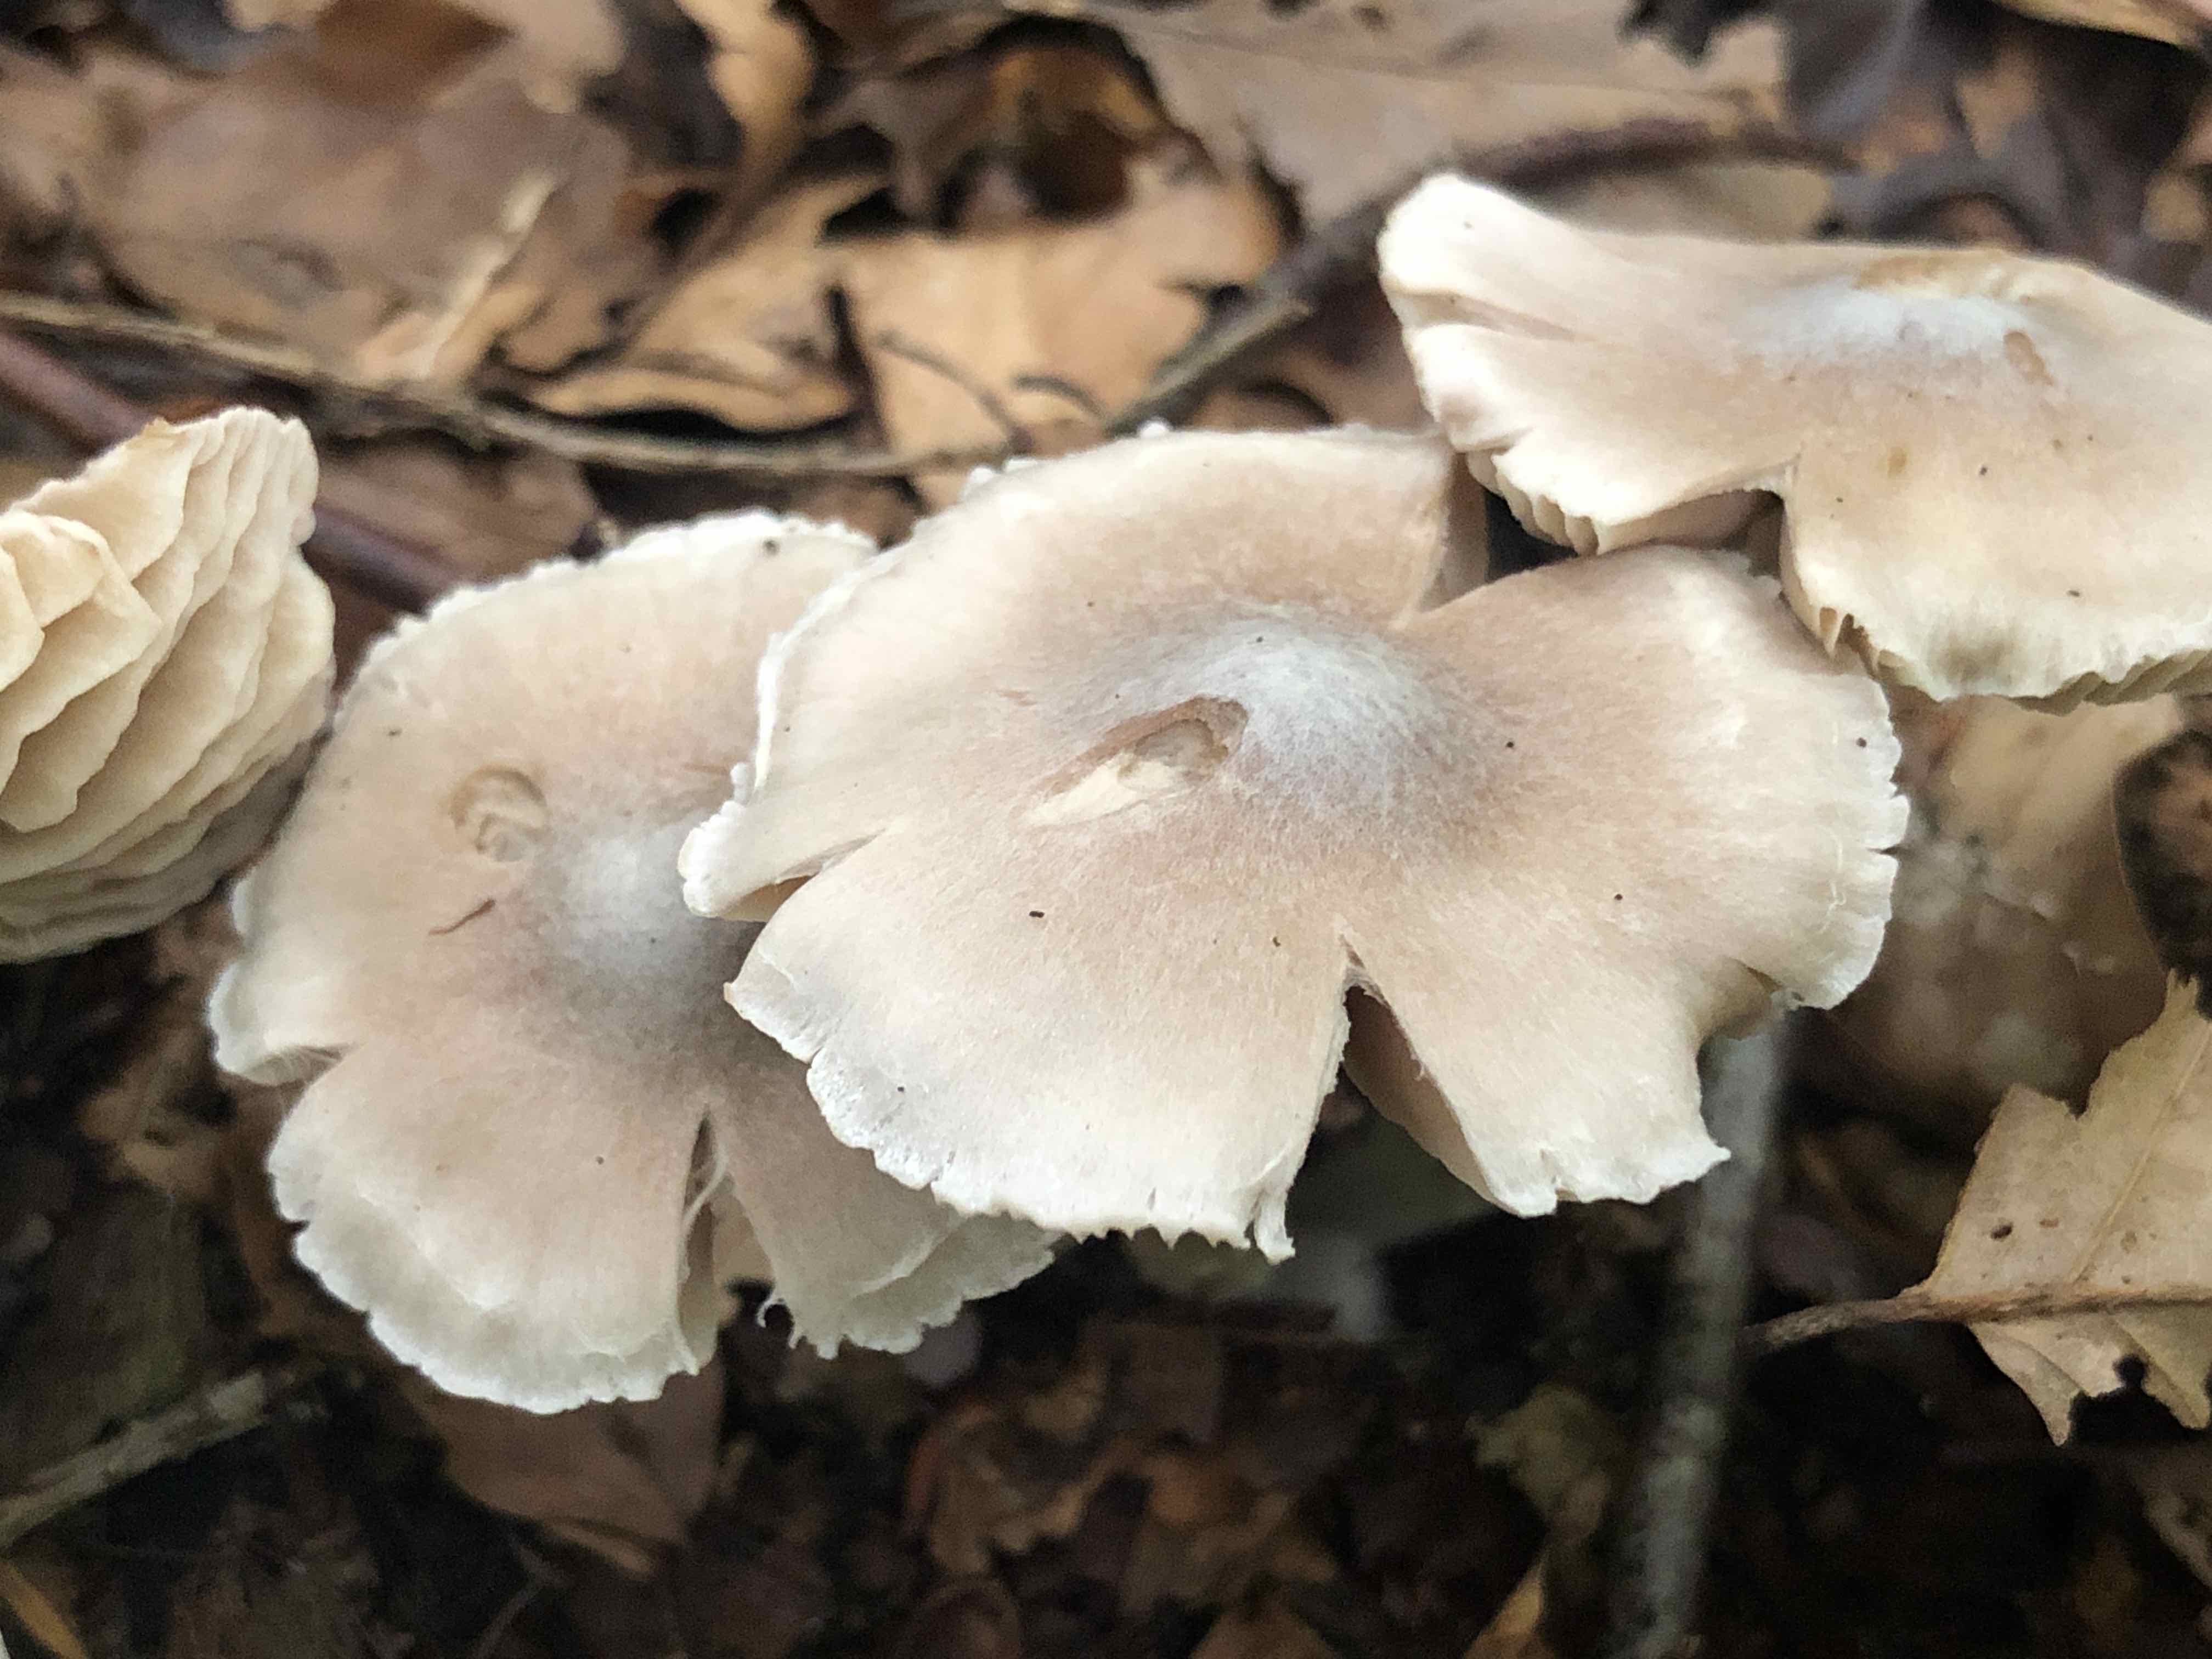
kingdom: Fungi
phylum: Basidiomycota
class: Agaricomycetes
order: Agaricales
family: Cortinariaceae
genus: Cortinarius
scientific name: Cortinarius
